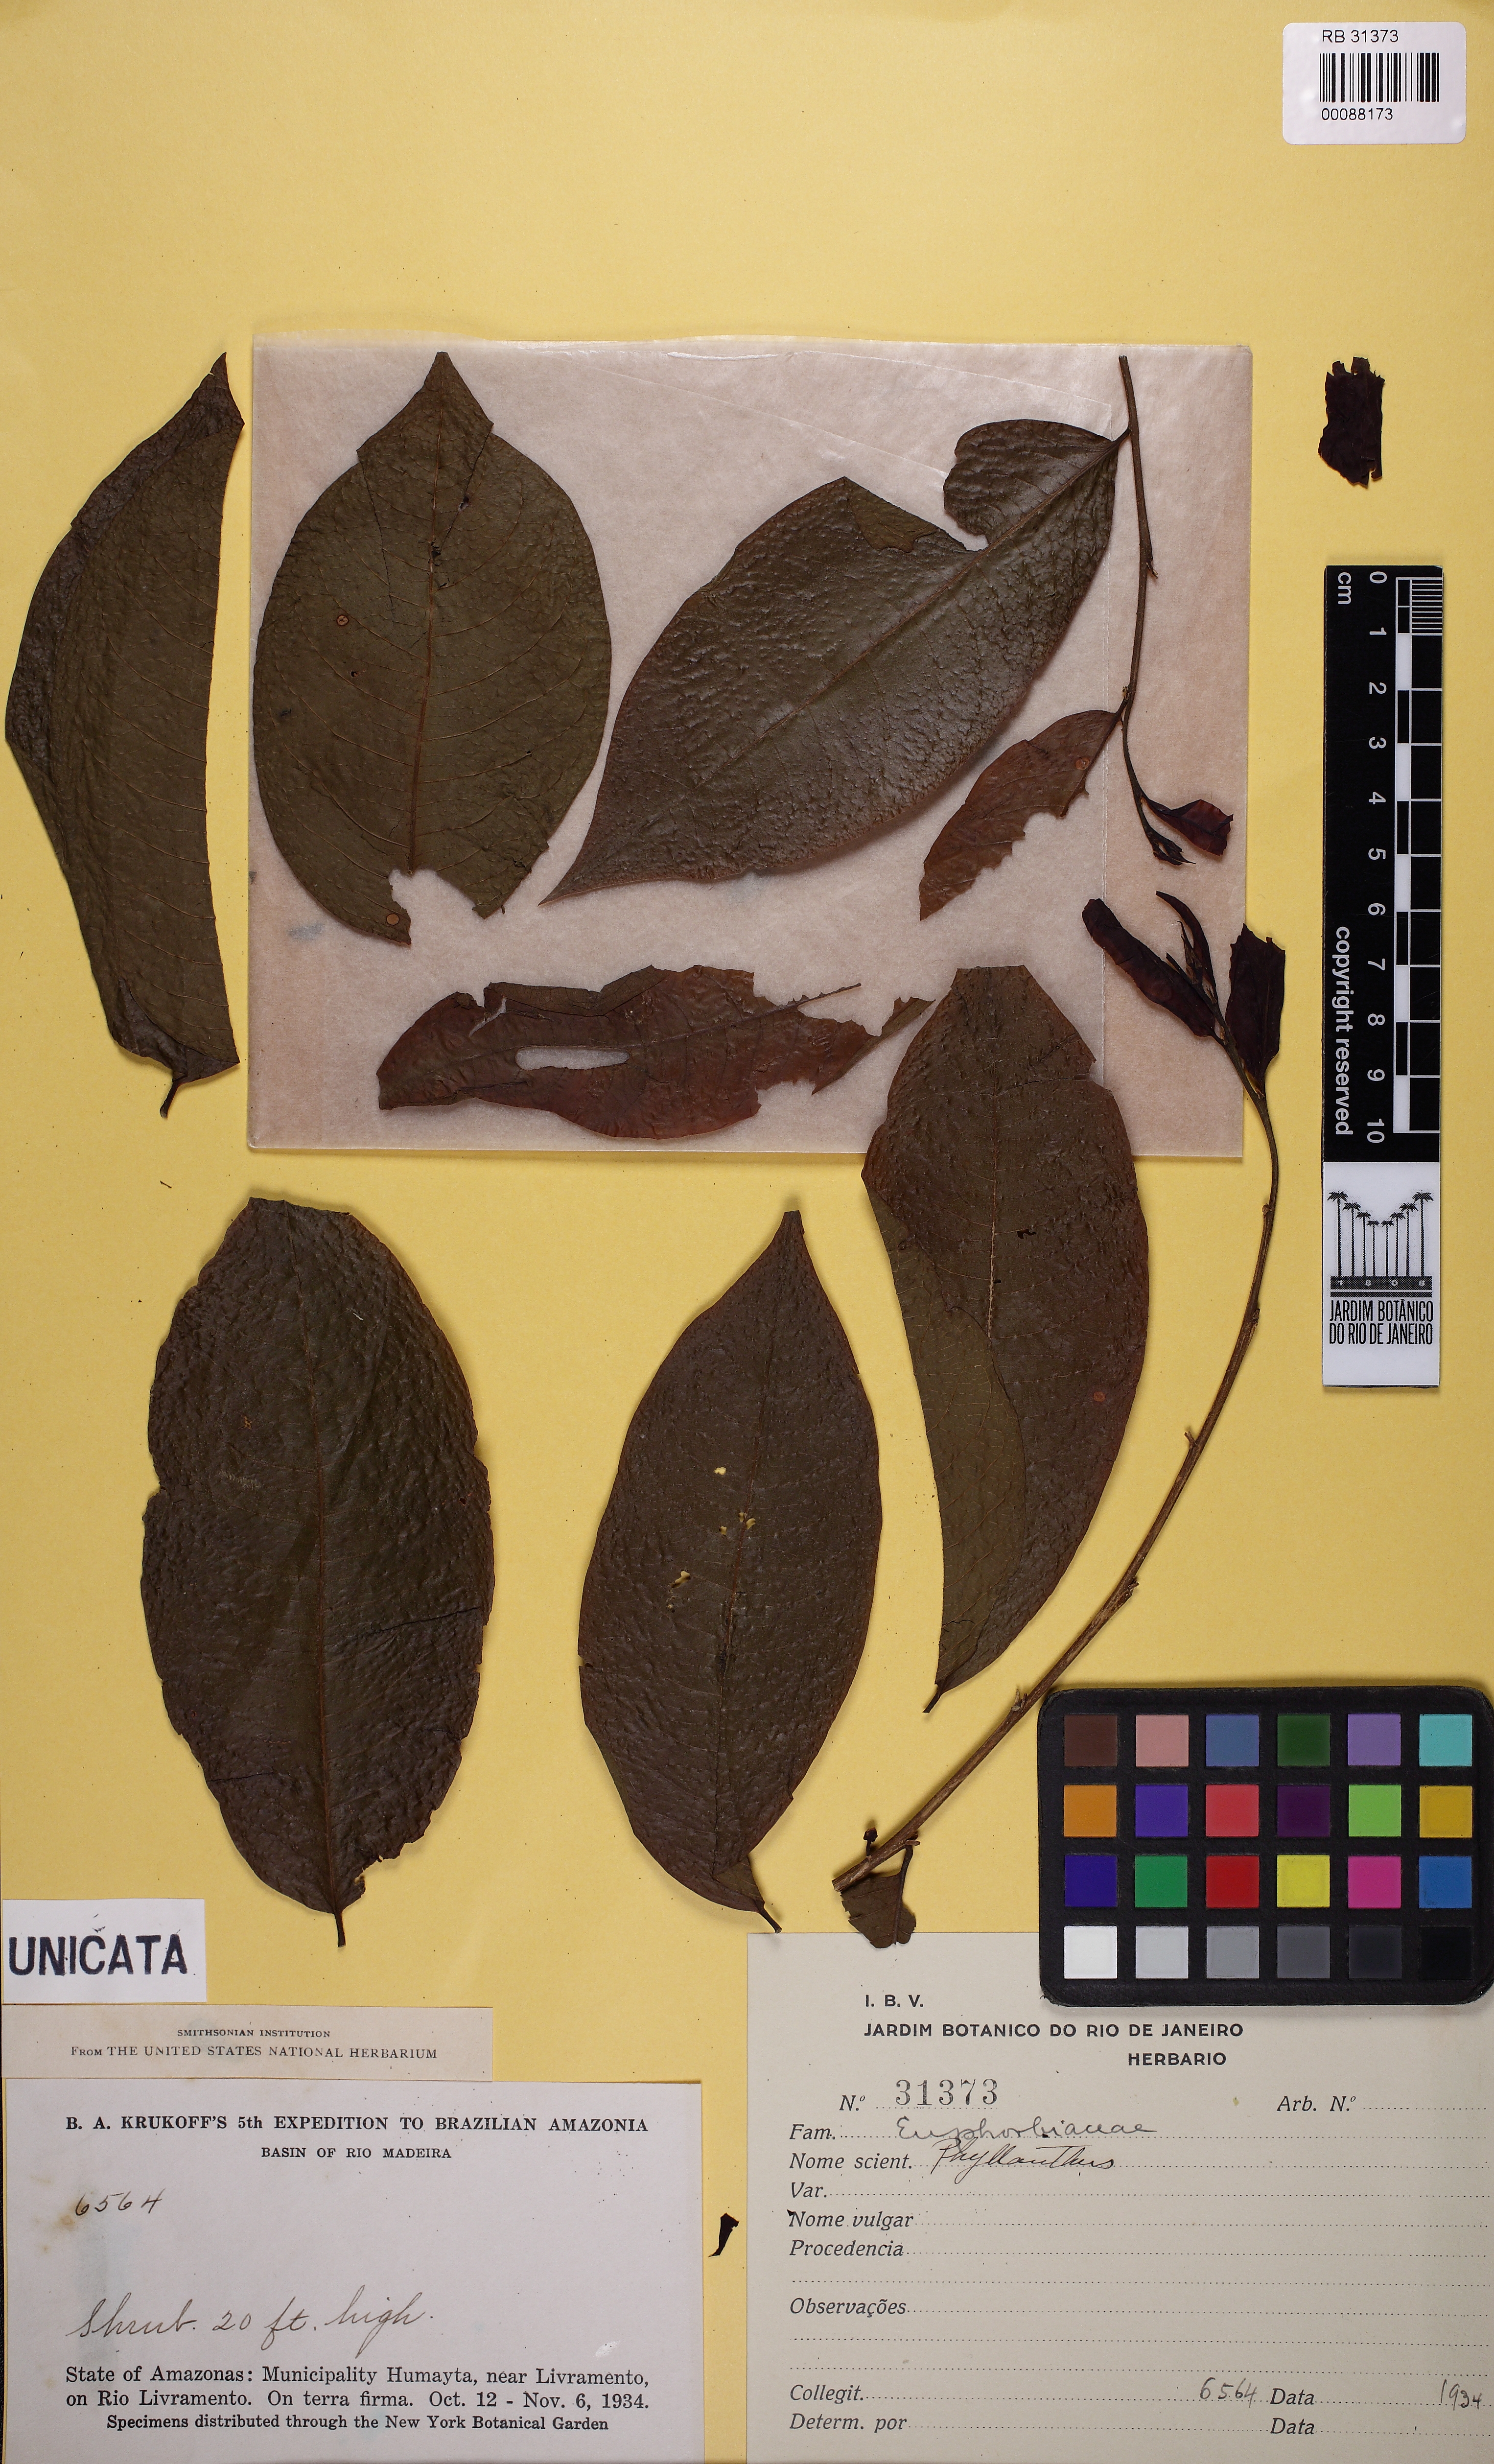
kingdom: Plantae
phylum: Tracheophyta
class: Magnoliopsida
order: Malpighiales
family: Phyllanthaceae
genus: Phyllanthus
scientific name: Phyllanthus
